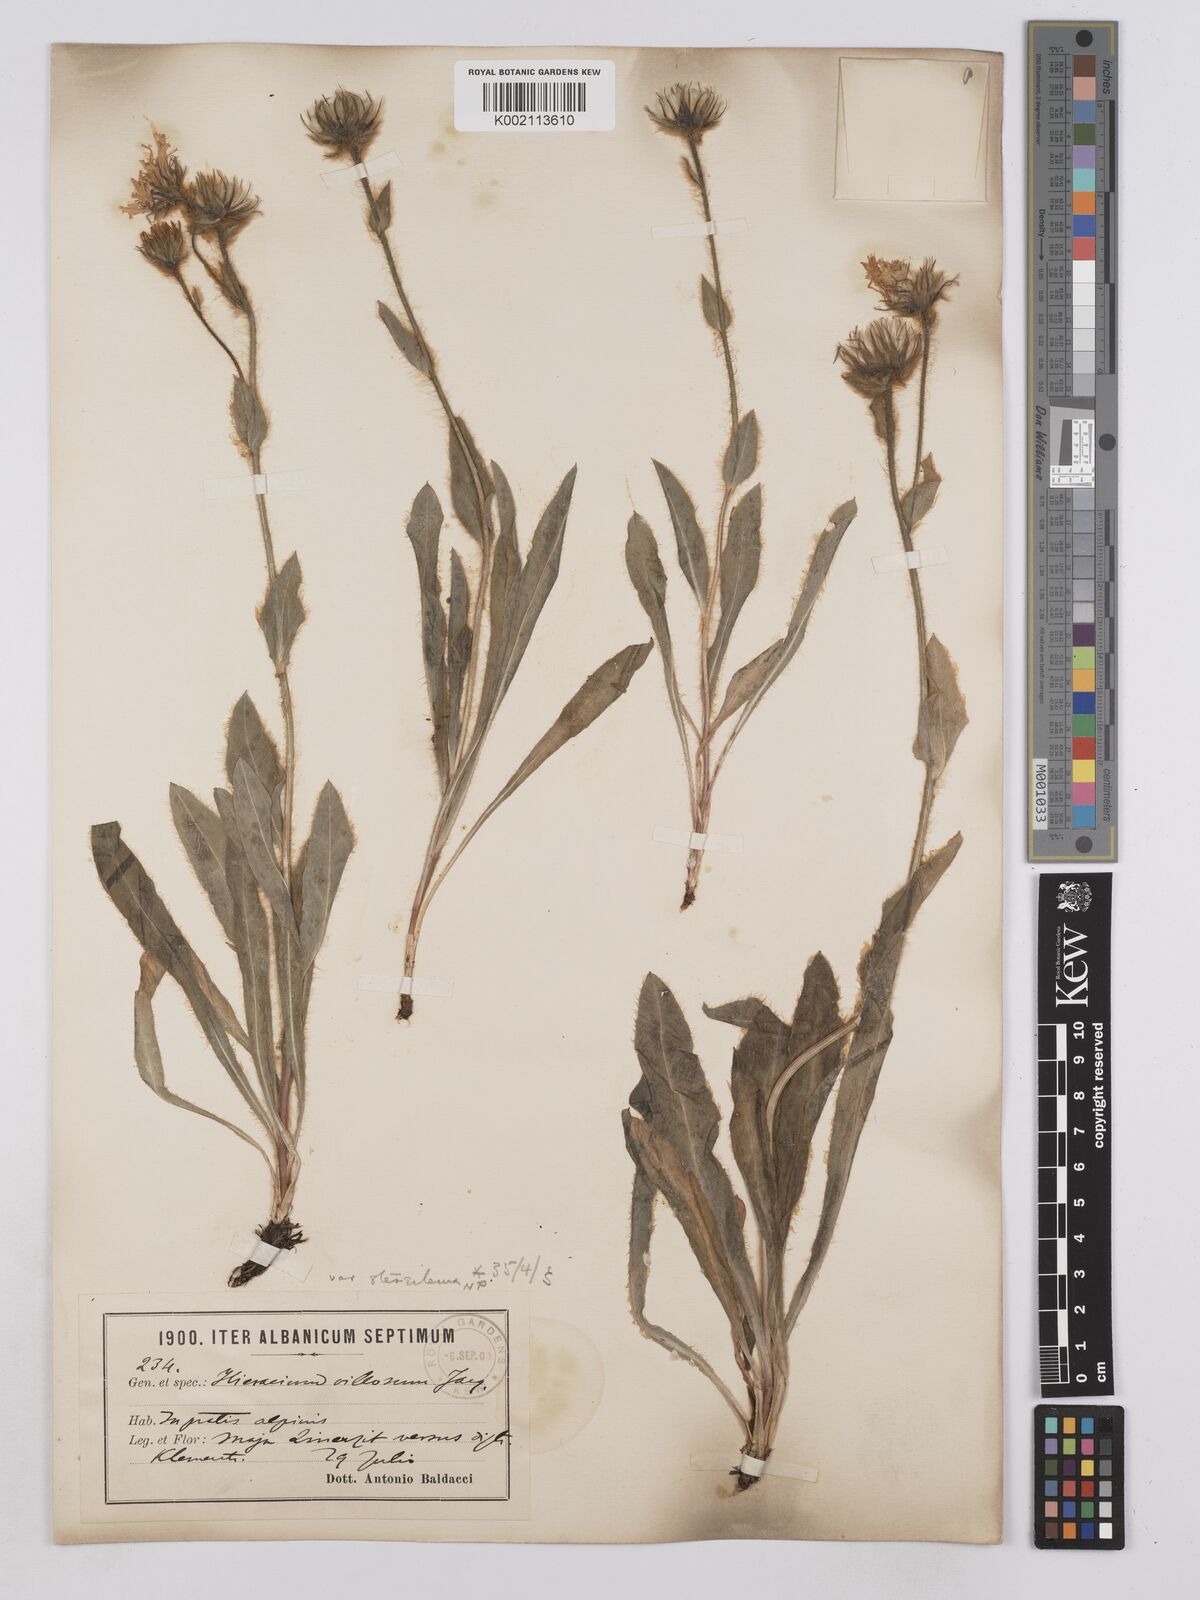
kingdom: Plantae
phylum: Tracheophyta
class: Magnoliopsida
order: Asterales
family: Asteraceae
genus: Hieracium
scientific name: Hieracium villosum
